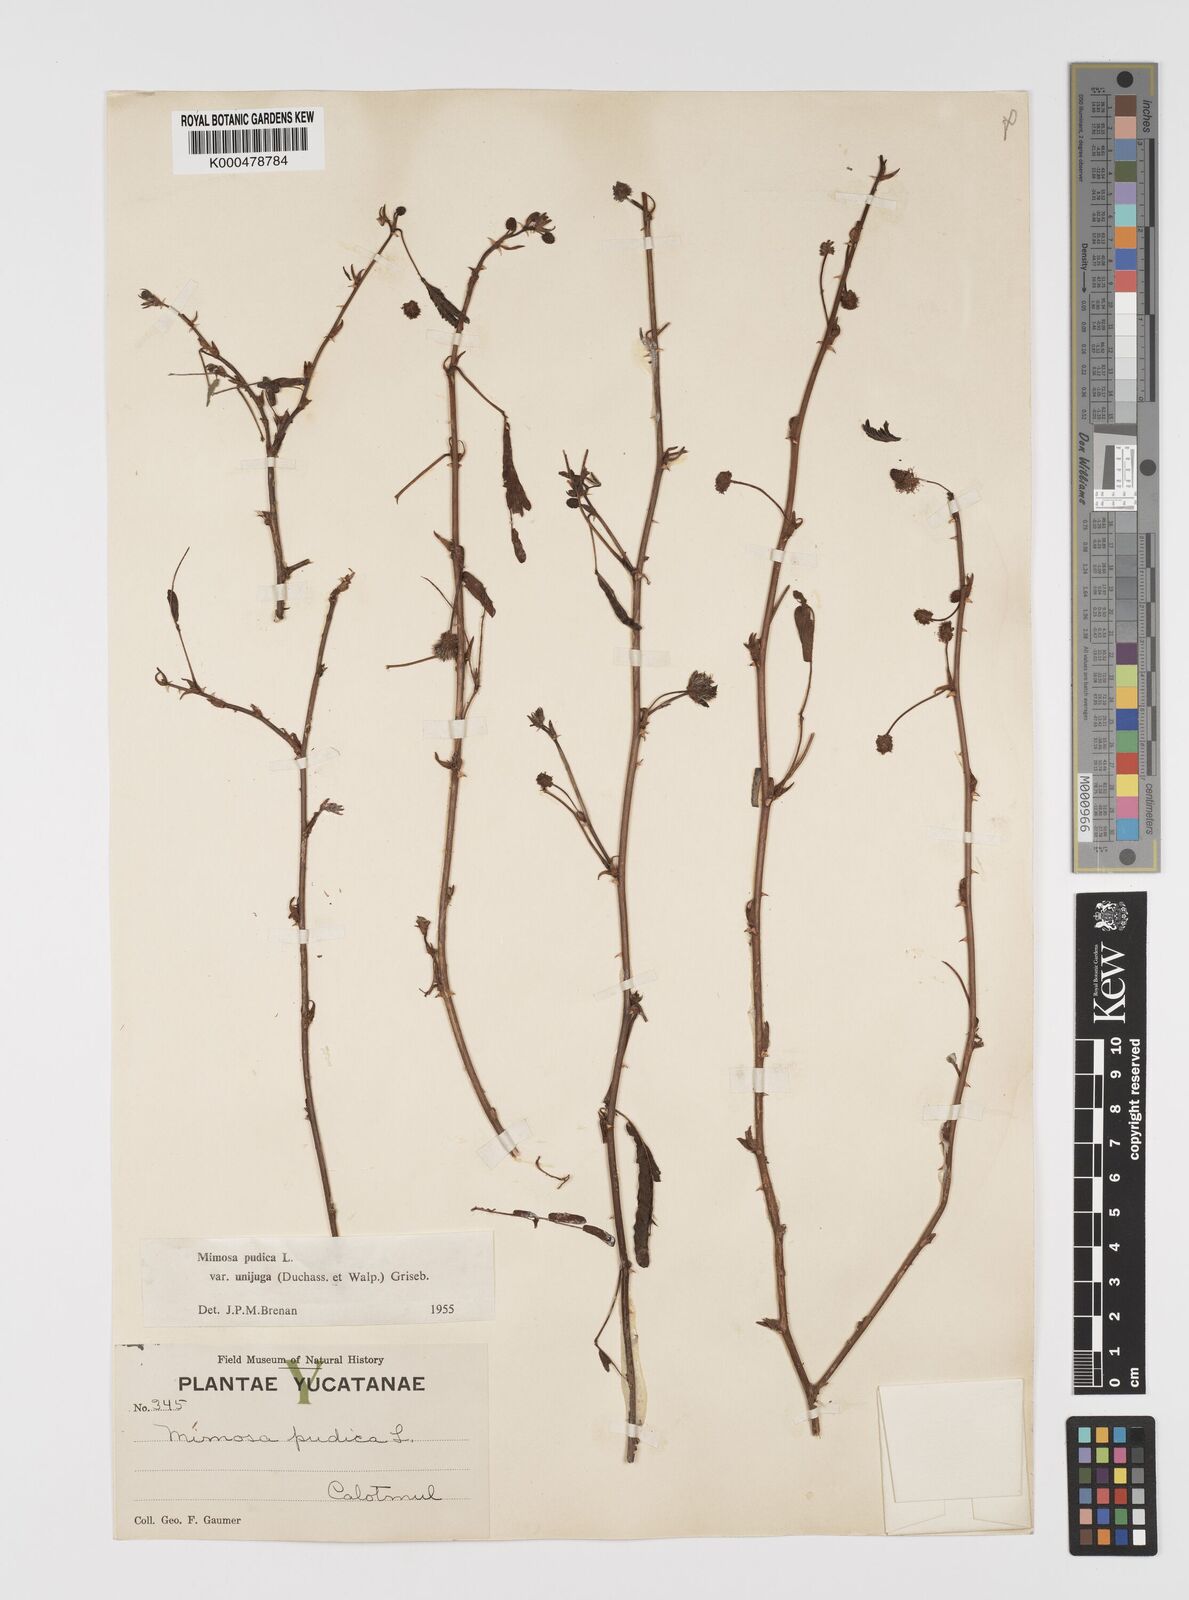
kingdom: Plantae
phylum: Tracheophyta
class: Magnoliopsida
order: Fabales
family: Fabaceae
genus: Mimosa
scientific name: Mimosa pudica
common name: Sensitive plant
